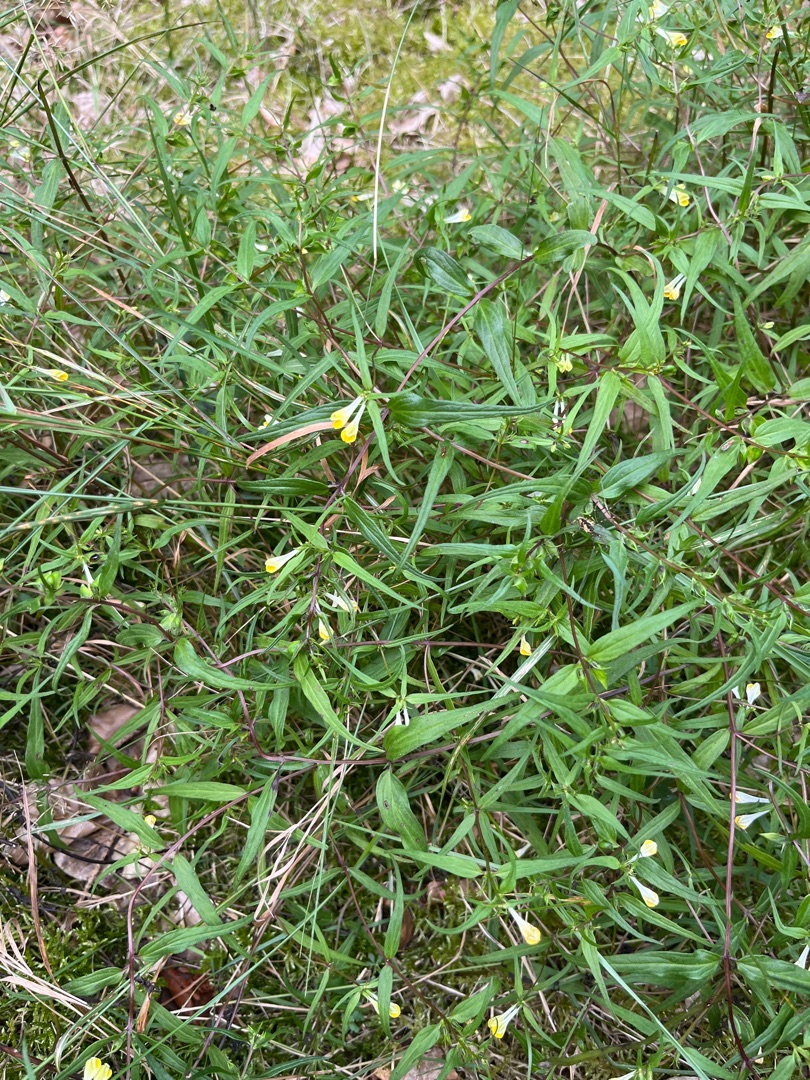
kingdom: Plantae
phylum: Tracheophyta
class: Magnoliopsida
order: Lamiales
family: Orobanchaceae
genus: Melampyrum
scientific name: Melampyrum pratense
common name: Almindelig kohvede
